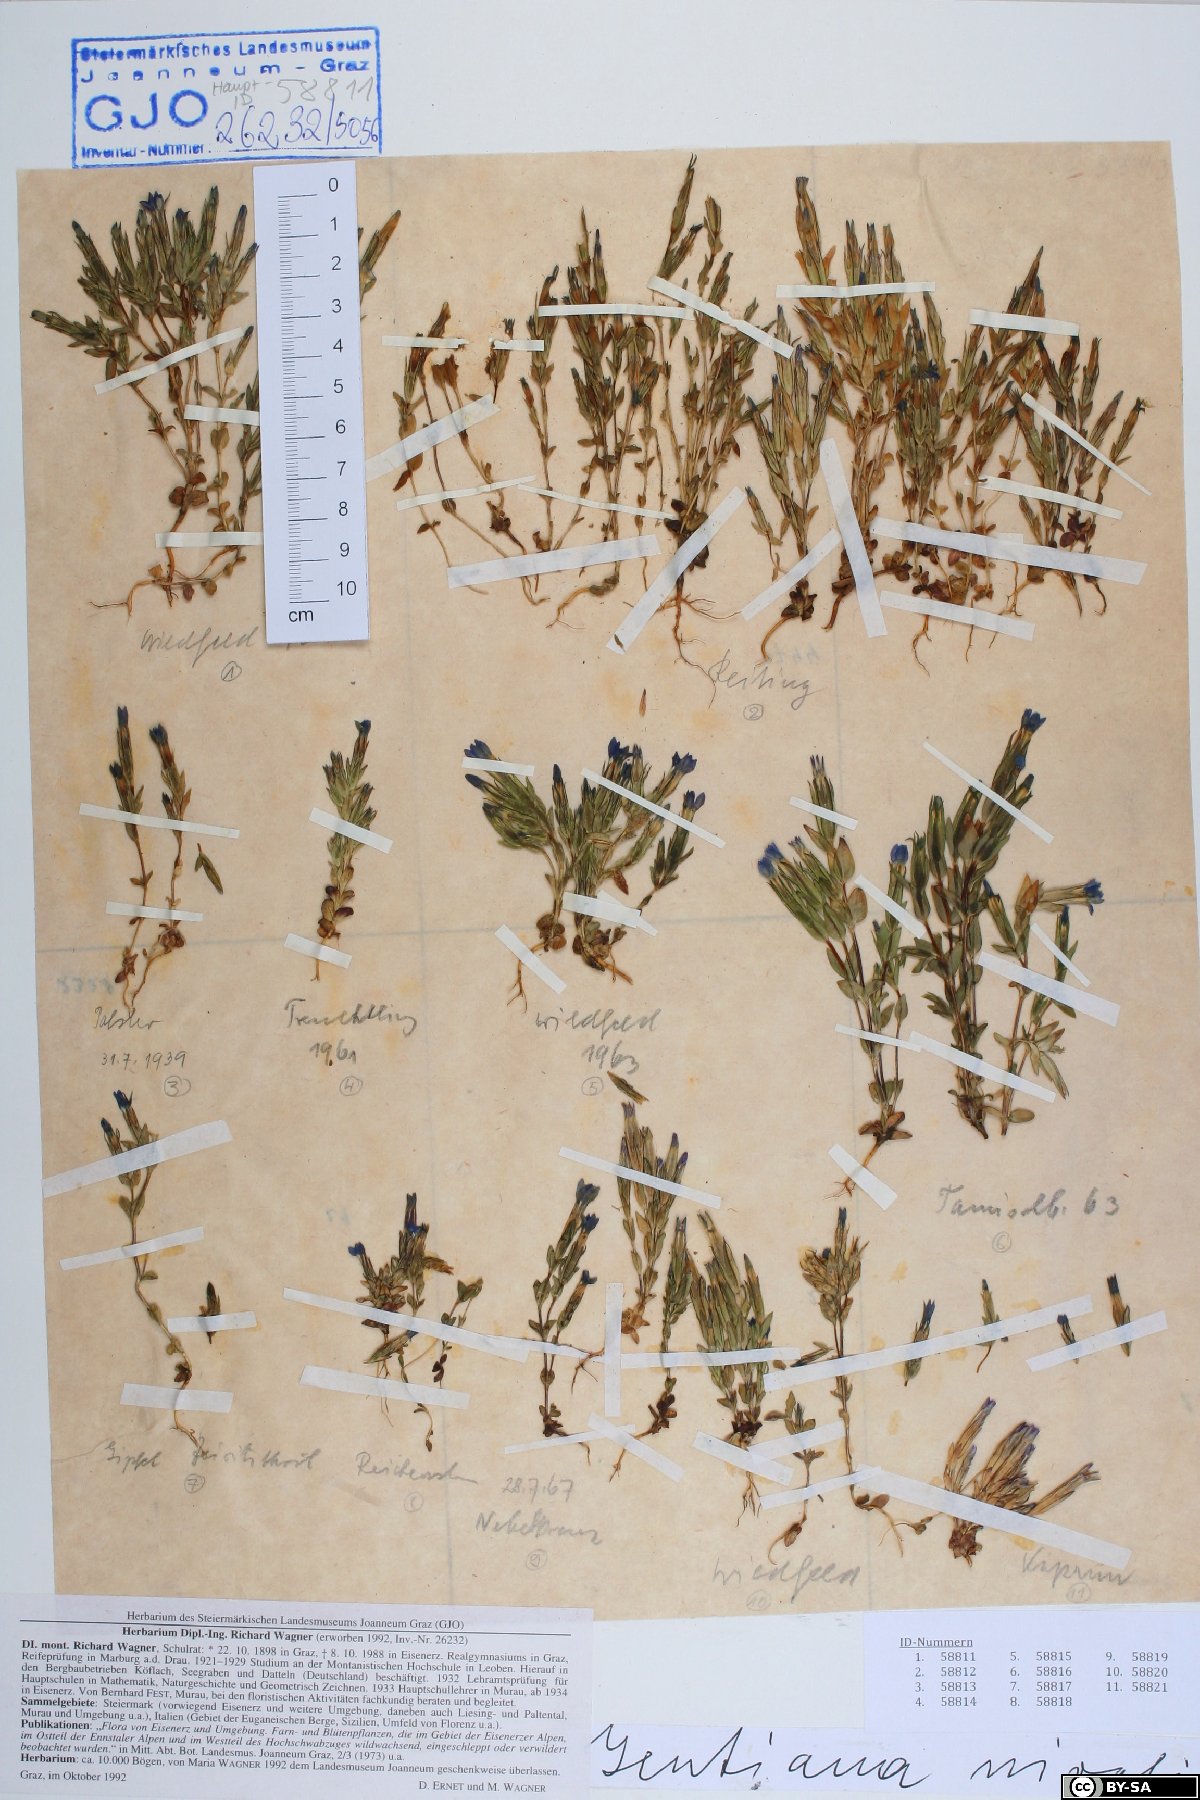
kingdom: Plantae
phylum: Tracheophyta
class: Magnoliopsida
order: Gentianales
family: Gentianaceae
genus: Gentiana
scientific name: Gentiana nivalis
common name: Alpine gentian
